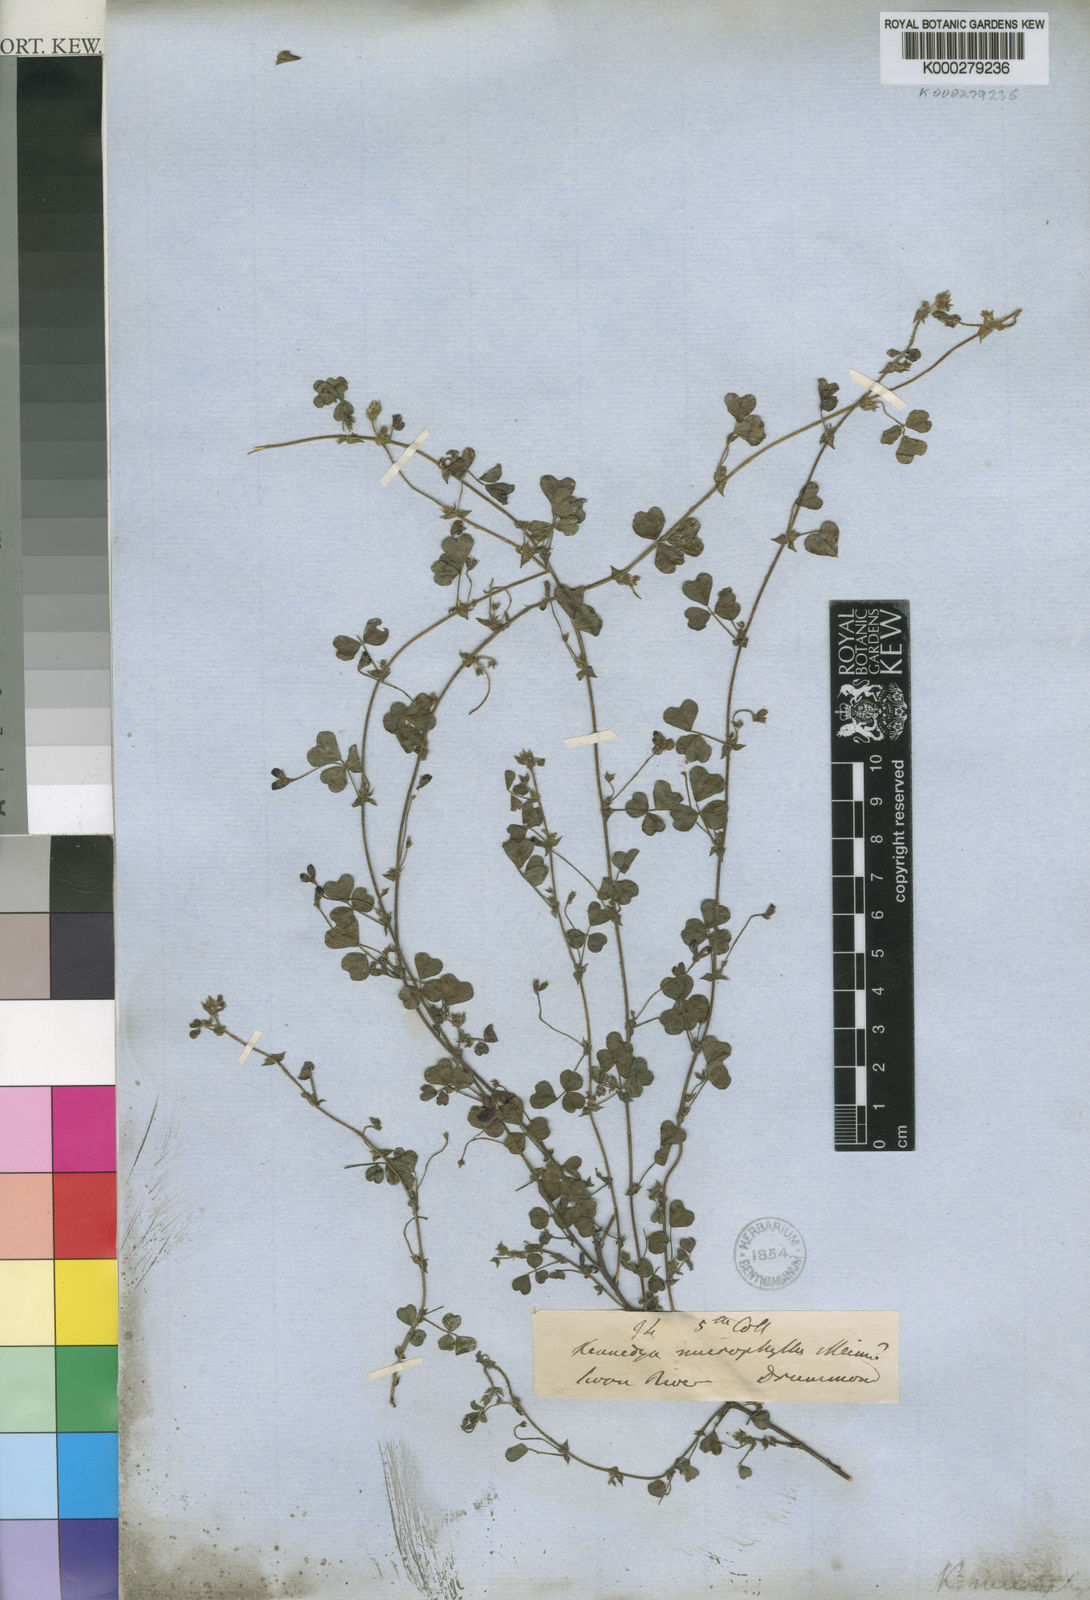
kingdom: Plantae
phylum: Tracheophyta
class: Magnoliopsida
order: Fabales
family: Fabaceae
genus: Kennedia
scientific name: Kennedia microphylla
